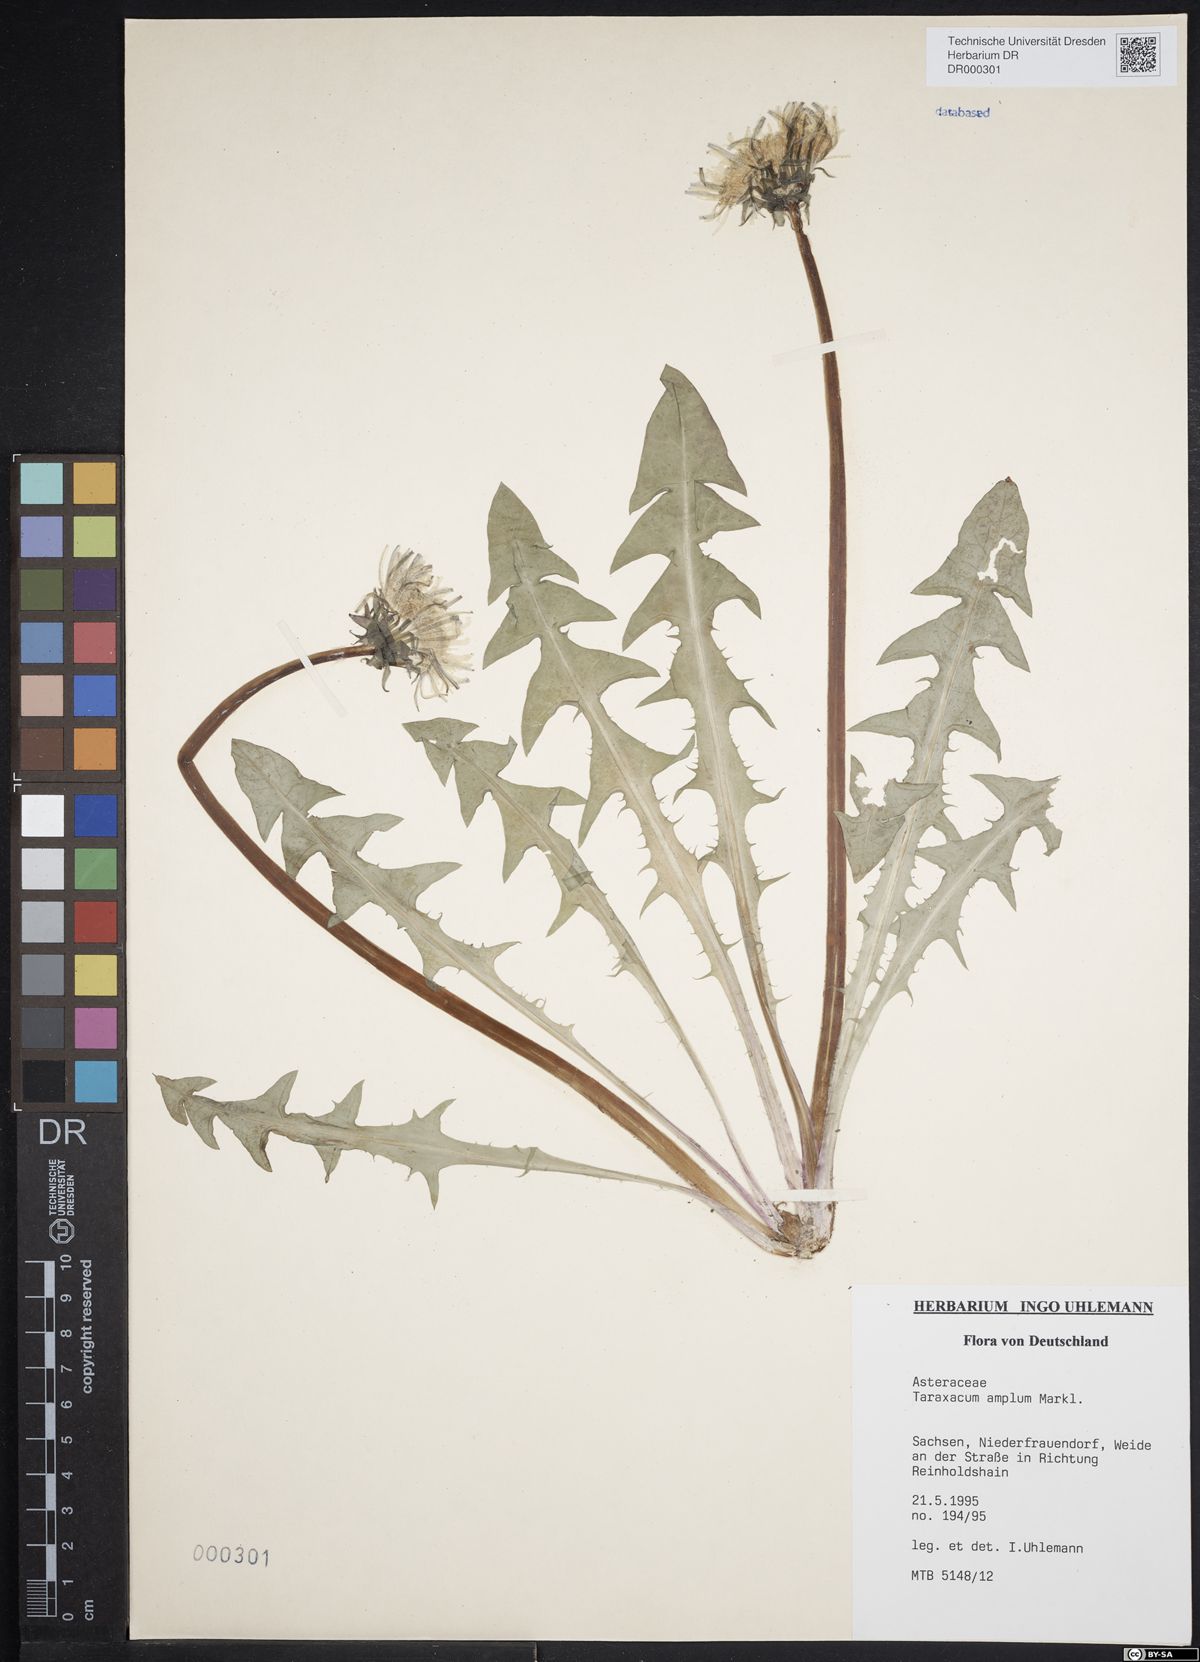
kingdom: Plantae
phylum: Tracheophyta
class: Magnoliopsida
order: Asterales
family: Asteraceae
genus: Taraxacum
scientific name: Taraxacum amplum
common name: Toothed dandelion
